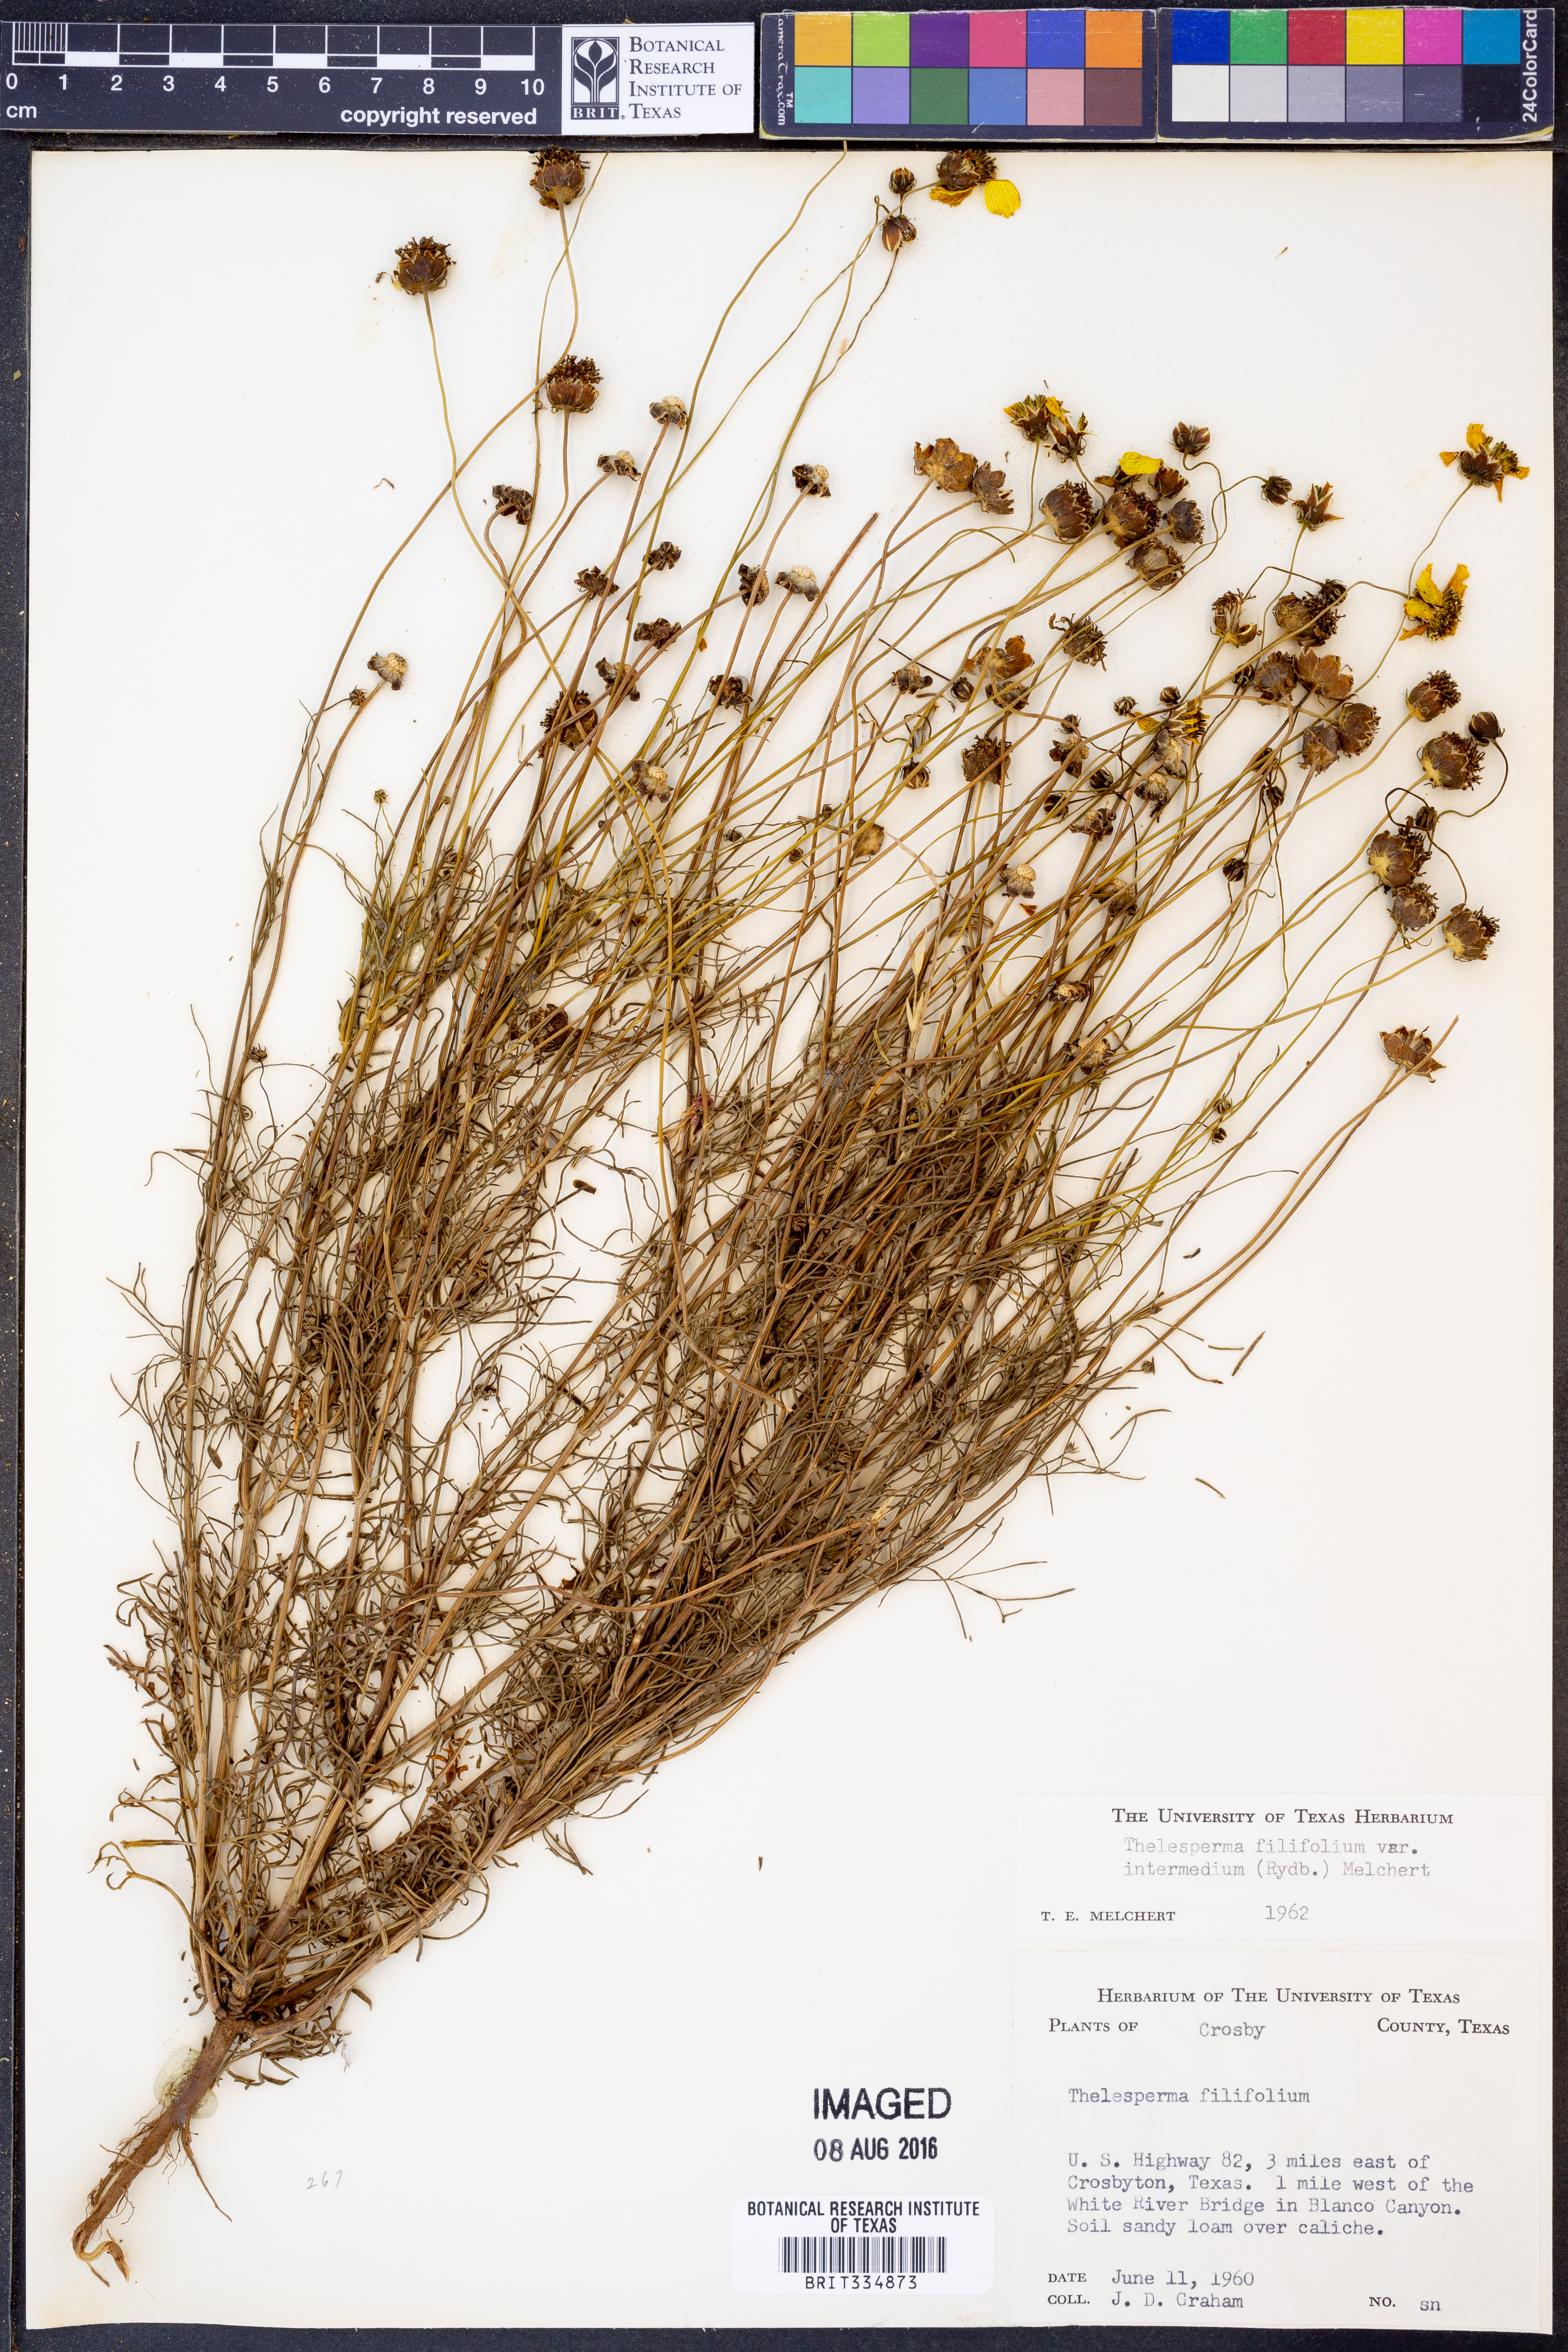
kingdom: Plantae
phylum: Tracheophyta
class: Magnoliopsida
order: Asterales
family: Asteraceae
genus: Thelesperma
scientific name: Thelesperma filifolium
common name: Stiff greenthread
